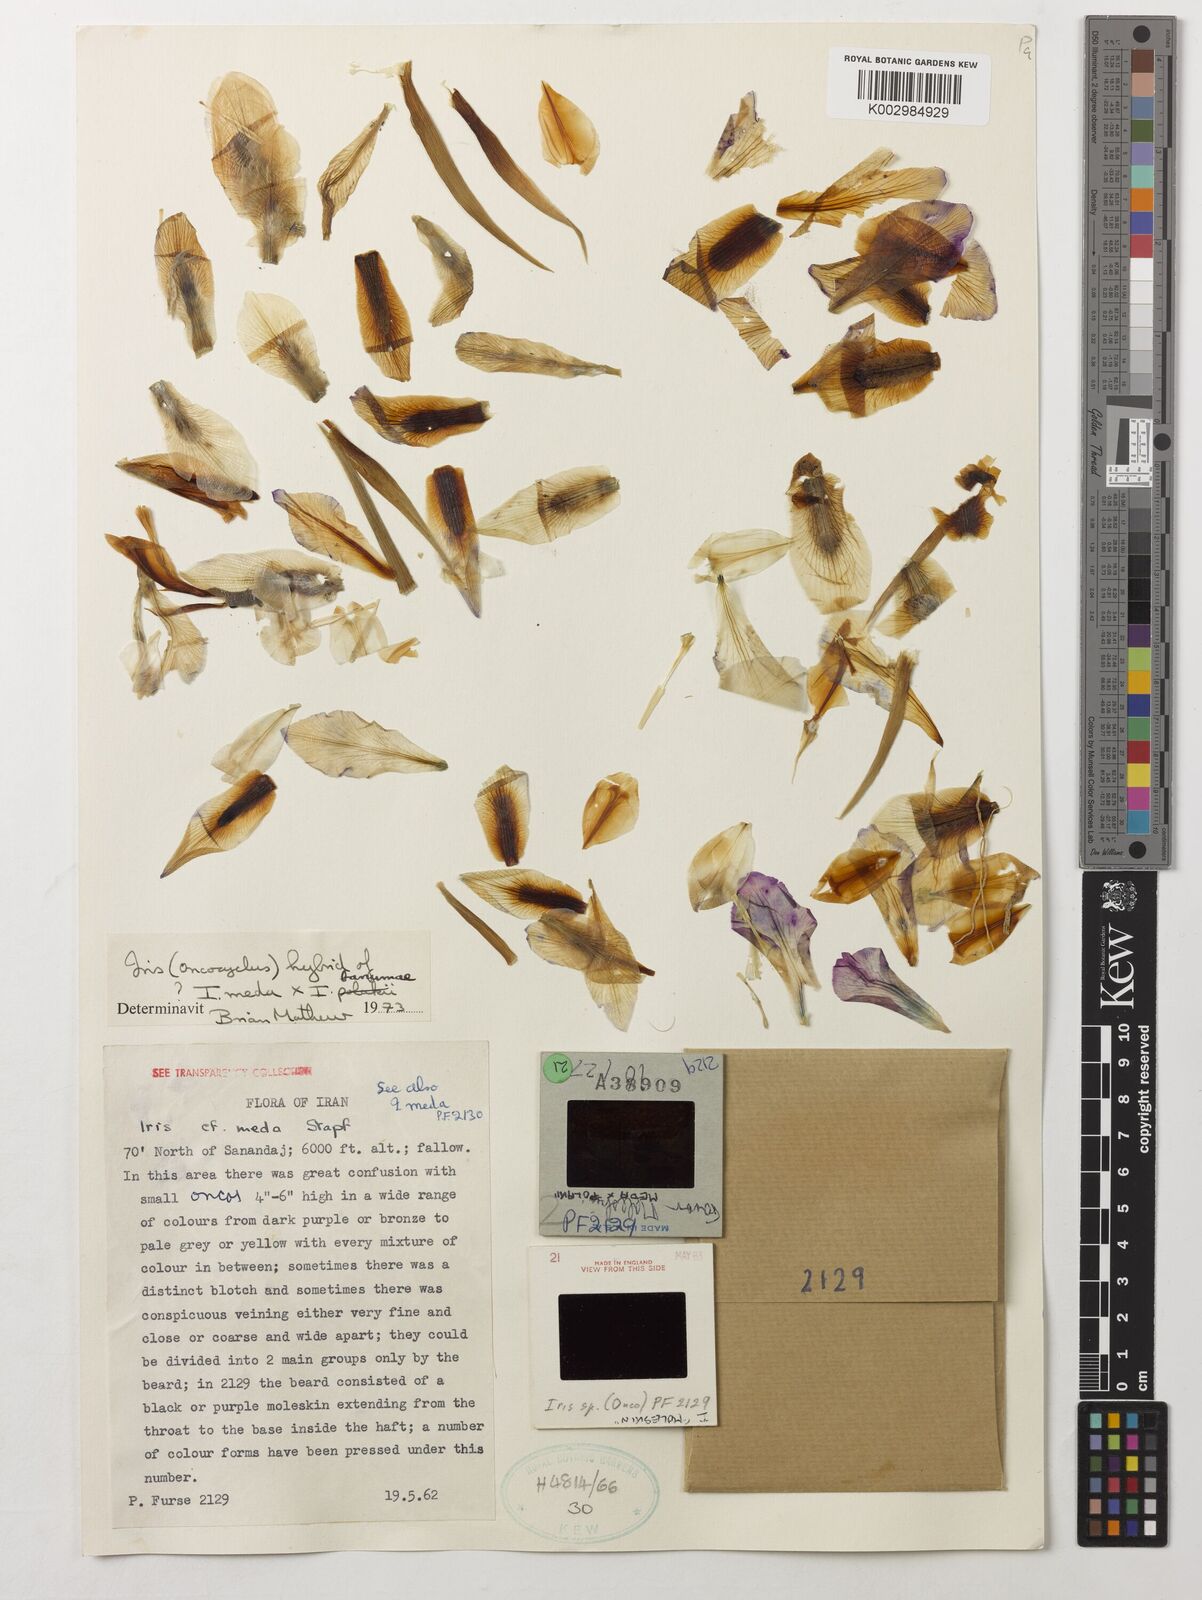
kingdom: Plantae
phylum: Tracheophyta
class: Liliopsida
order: Asparagales
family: Iridaceae
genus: Iris
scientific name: Iris meda
